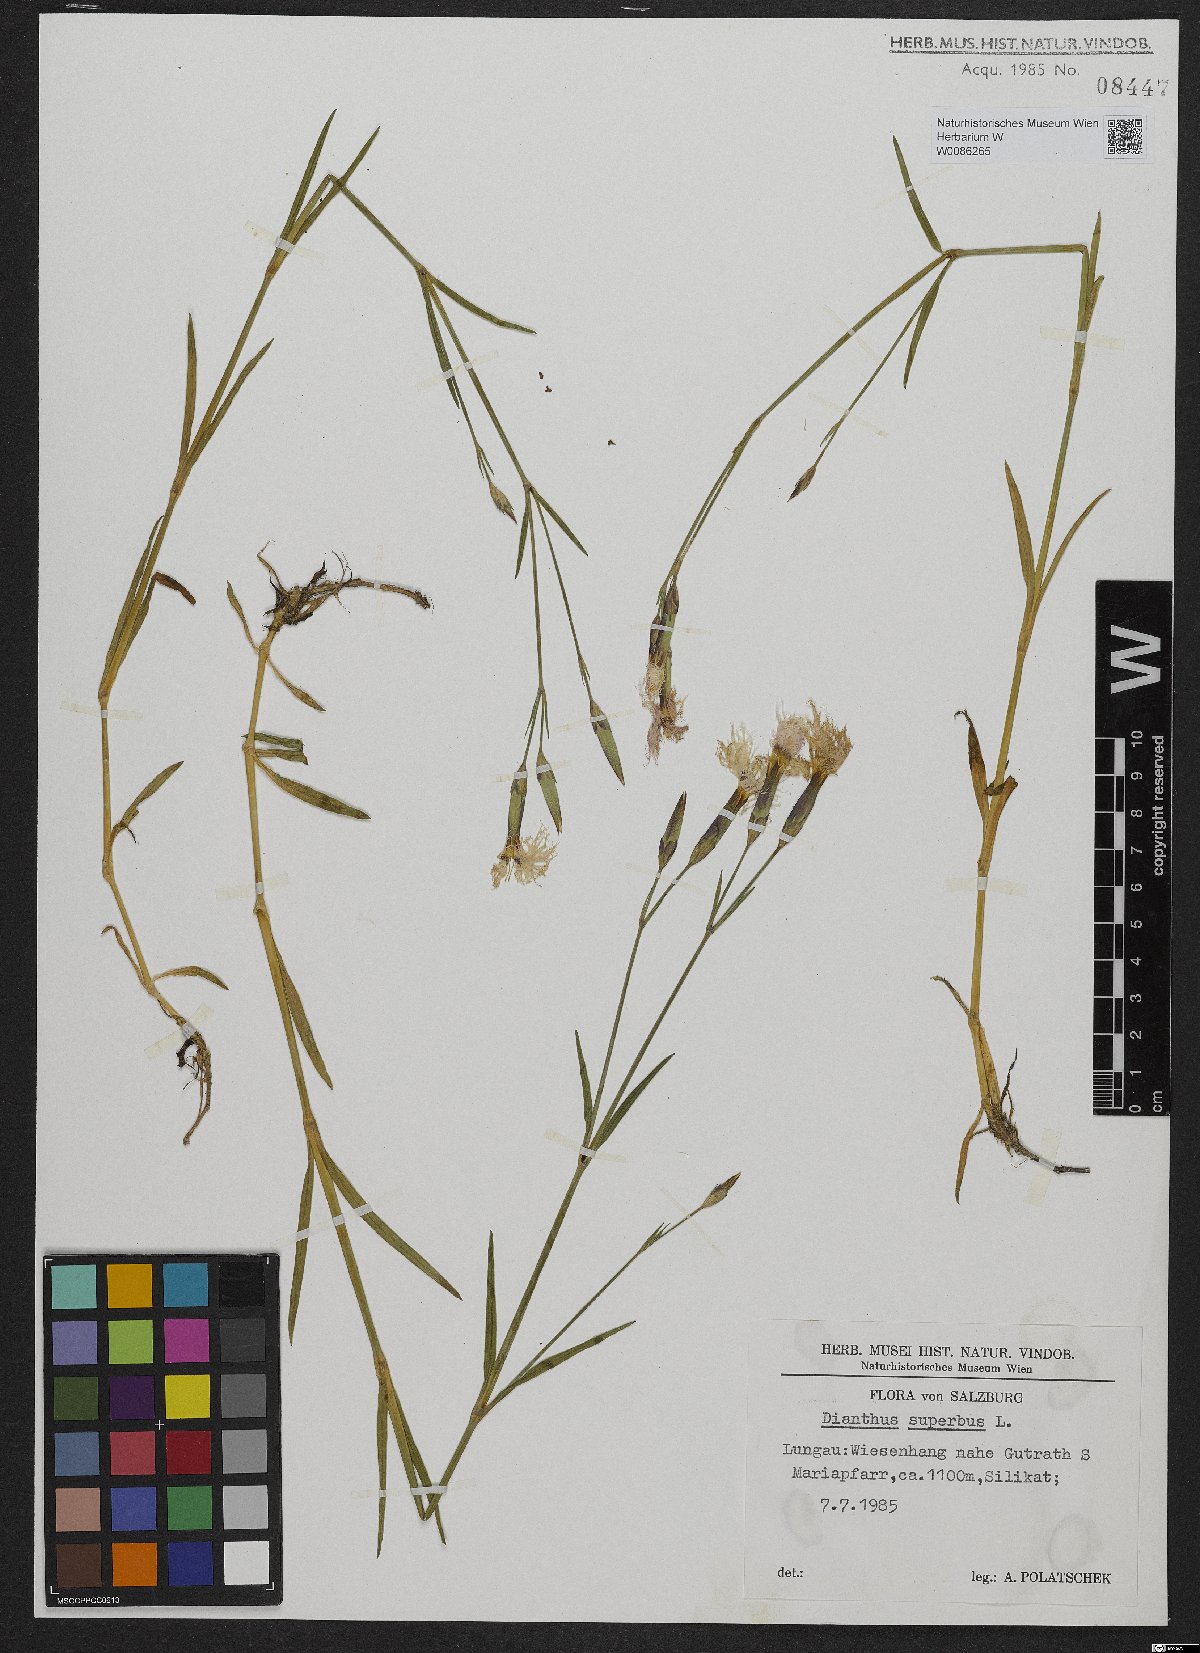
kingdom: Plantae
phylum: Tracheophyta
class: Magnoliopsida
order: Caryophyllales
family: Caryophyllaceae
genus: Dianthus
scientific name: Dianthus superbus
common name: Fringed pink
